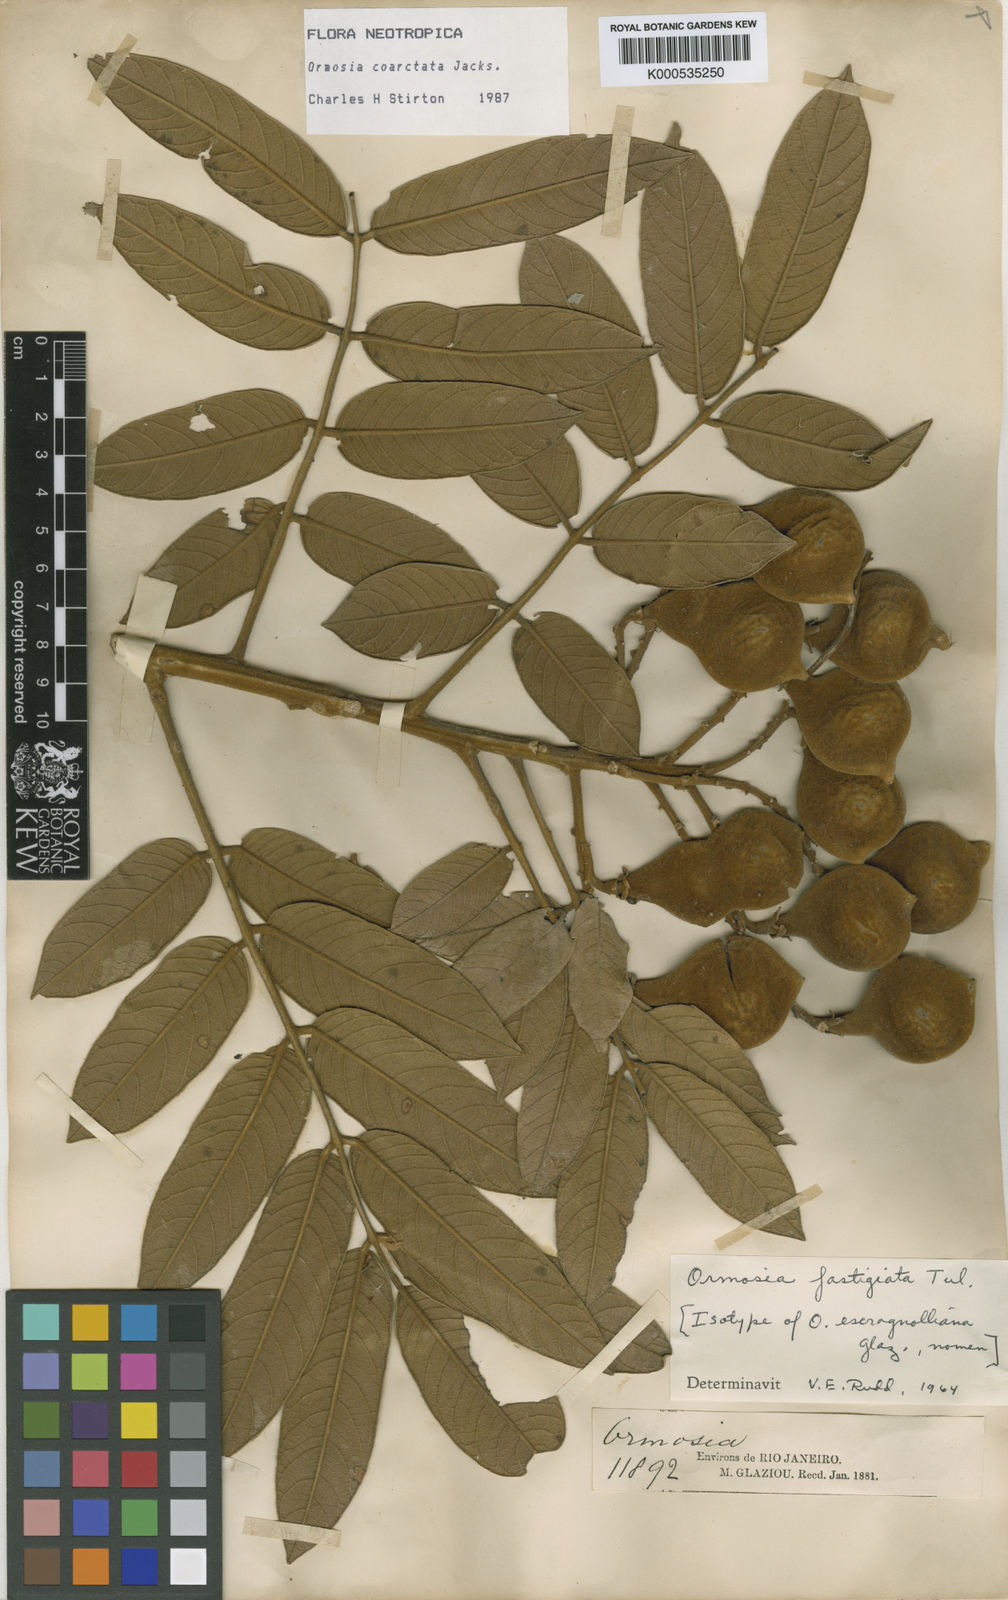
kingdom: Plantae
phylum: Tracheophyta
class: Magnoliopsida
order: Fabales
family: Fabaceae
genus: Ormosia
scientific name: Ormosia
